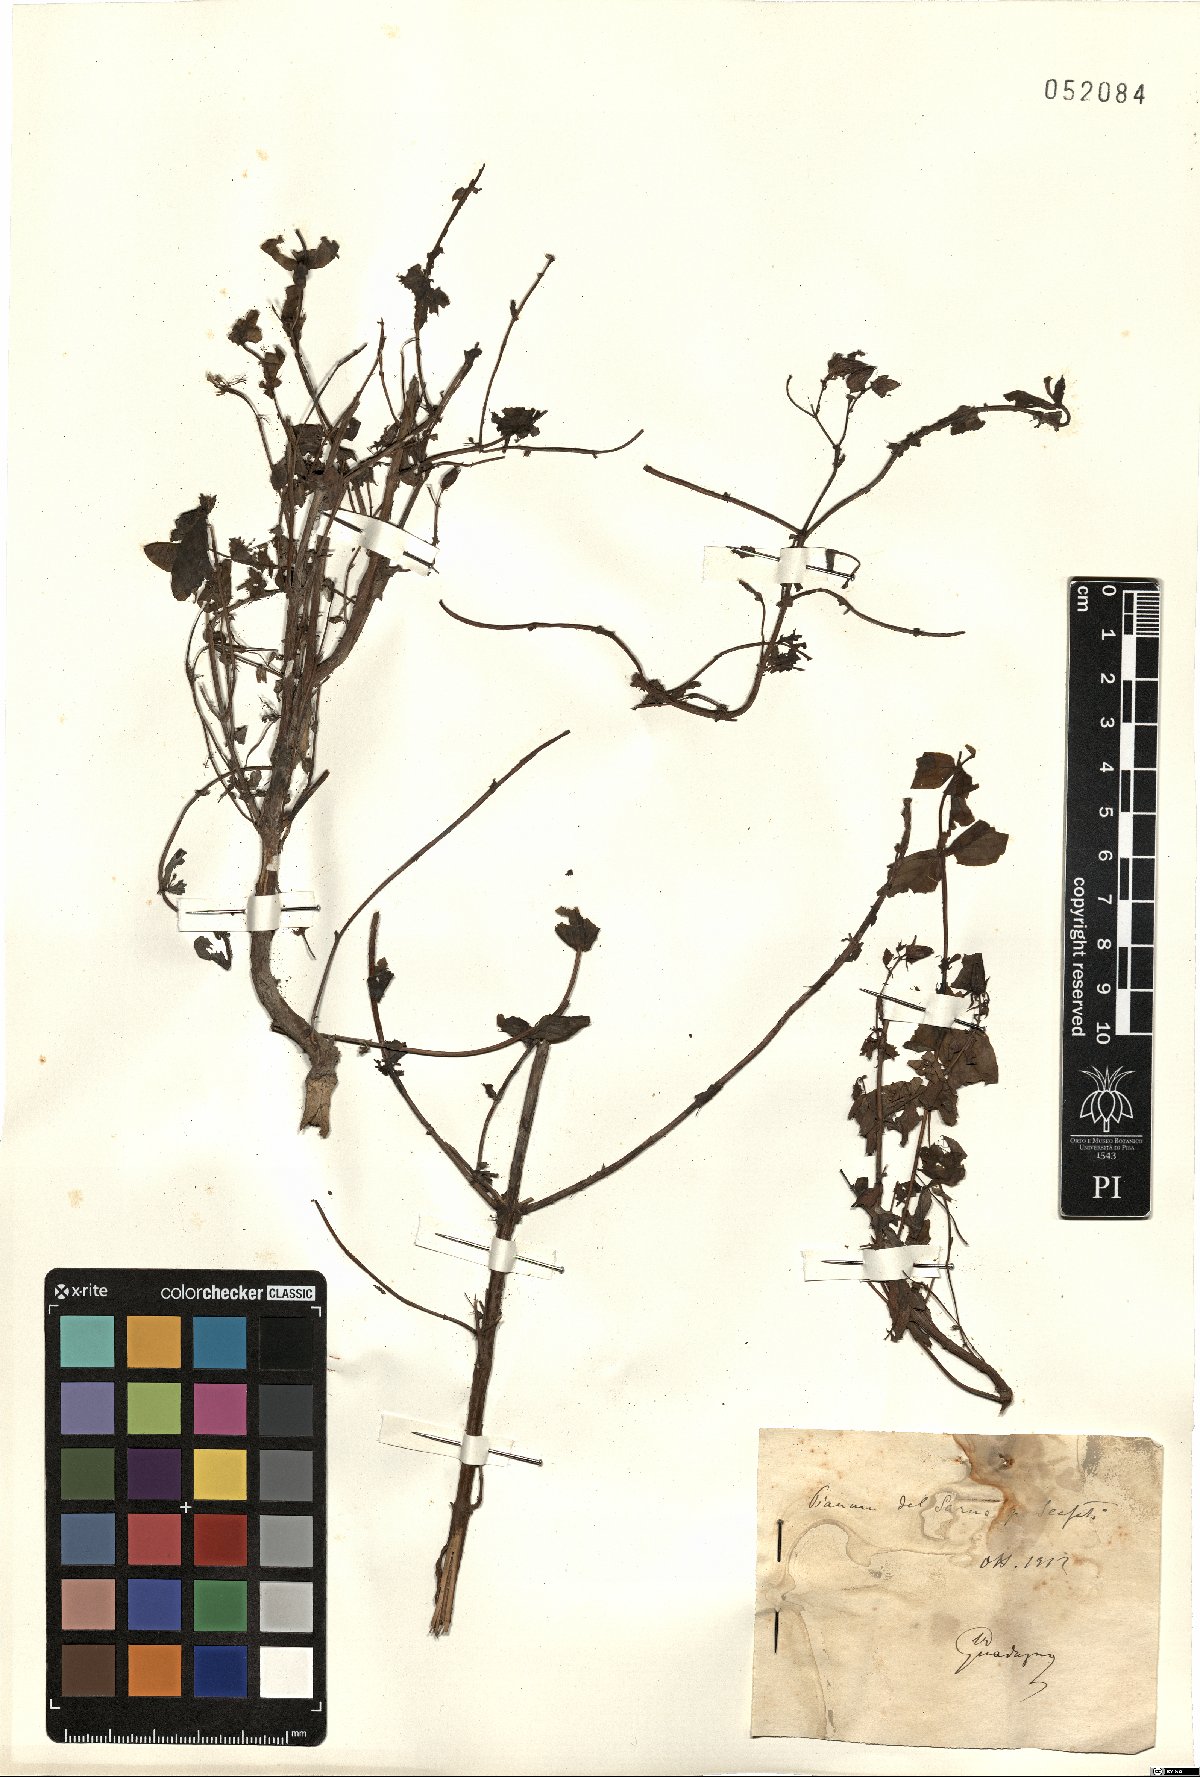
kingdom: Plantae
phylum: Tracheophyta
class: Magnoliopsida
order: Malpighiales
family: Hypericaceae
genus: Hypericum
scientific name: Hypericum
